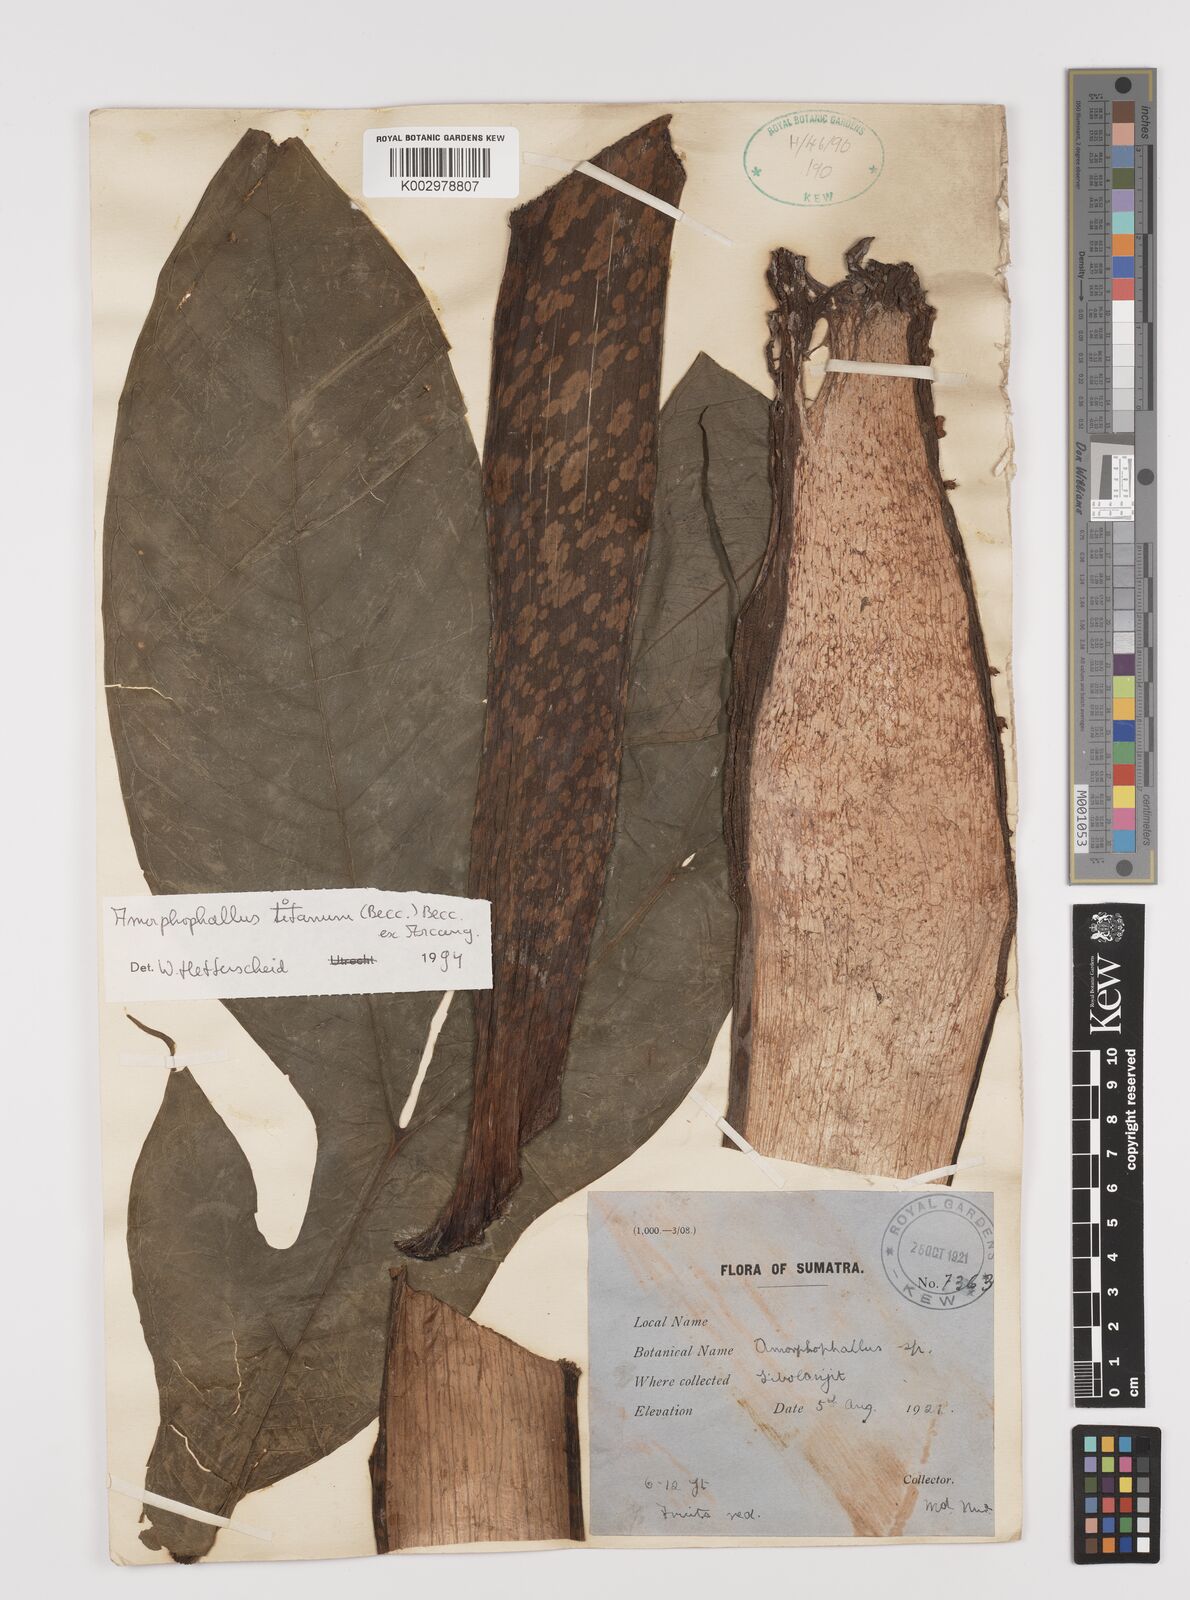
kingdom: Plantae
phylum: Tracheophyta
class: Liliopsida
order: Alismatales
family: Araceae
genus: Amorphophallus
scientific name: Amorphophallus titanum
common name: Titan arum
